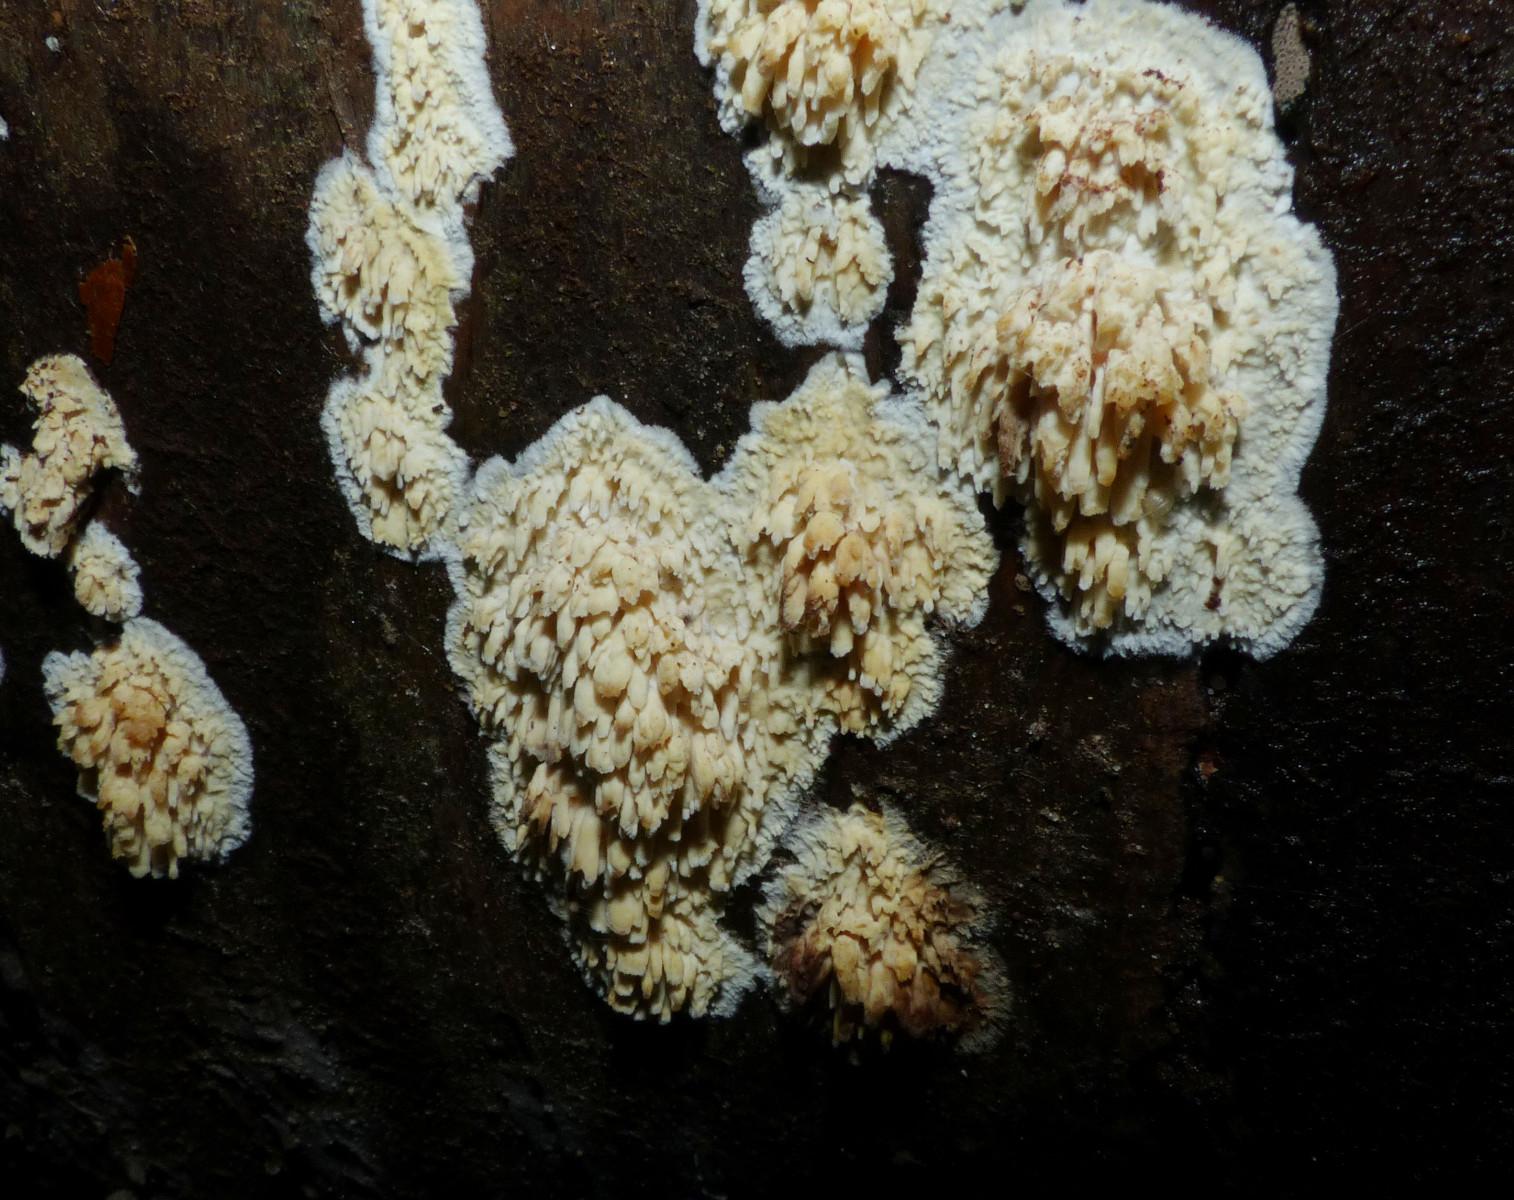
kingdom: Fungi
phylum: Basidiomycota
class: Agaricomycetes
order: Hymenochaetales
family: Schizoporaceae
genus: Xylodon
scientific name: Xylodon radula
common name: grovtandet kalkskind
